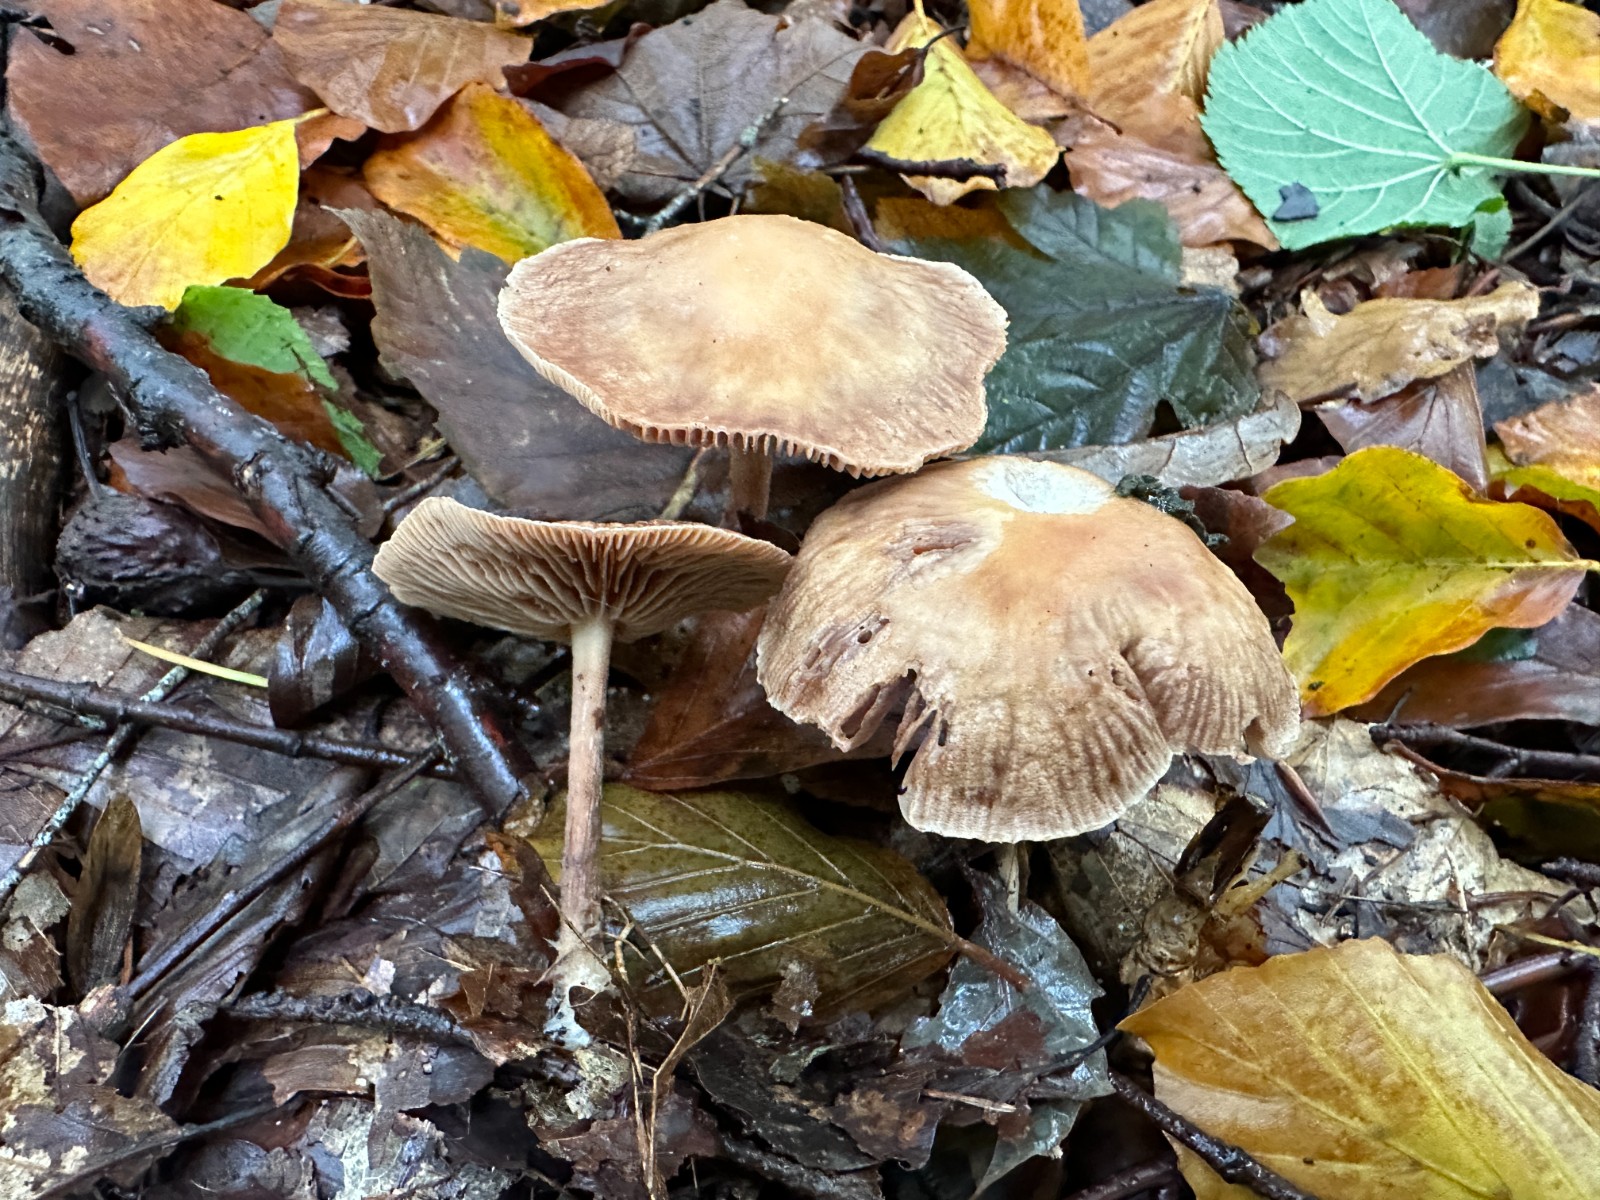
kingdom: Fungi
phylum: Basidiomycota
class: Agaricomycetes
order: Agaricales
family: Omphalotaceae
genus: Collybiopsis
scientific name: Collybiopsis peronata
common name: bestøvlet fladhat
